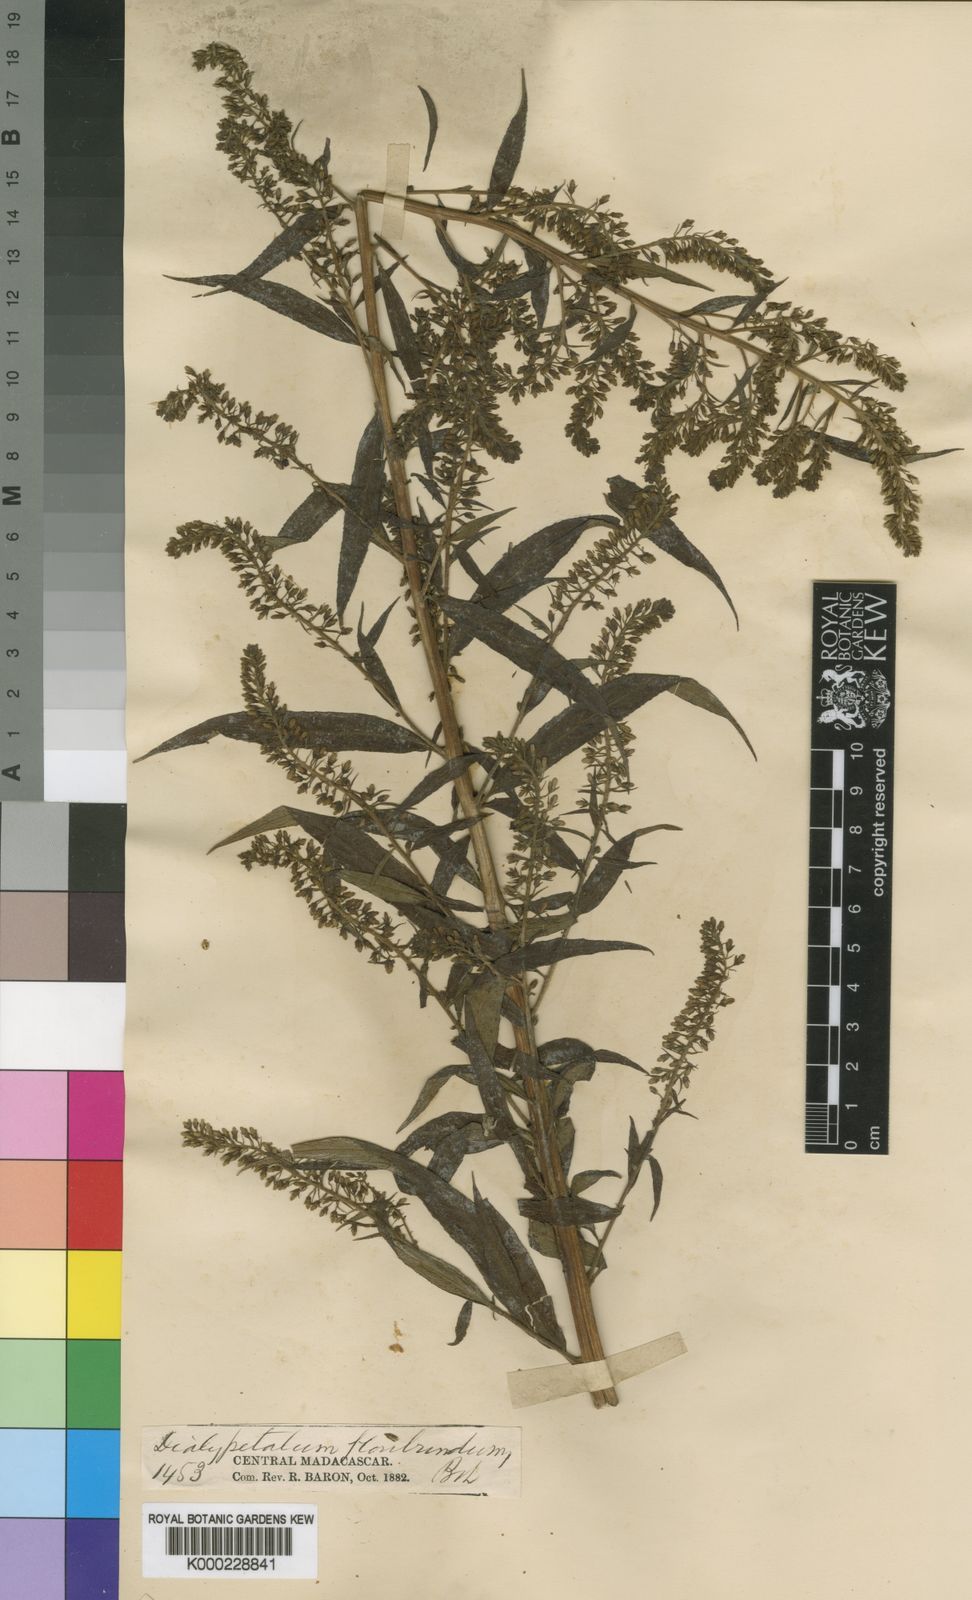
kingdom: Plantae
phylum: Tracheophyta
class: Magnoliopsida
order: Asterales
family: Campanulaceae
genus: Dialypetalum
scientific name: Dialypetalum floribundum
